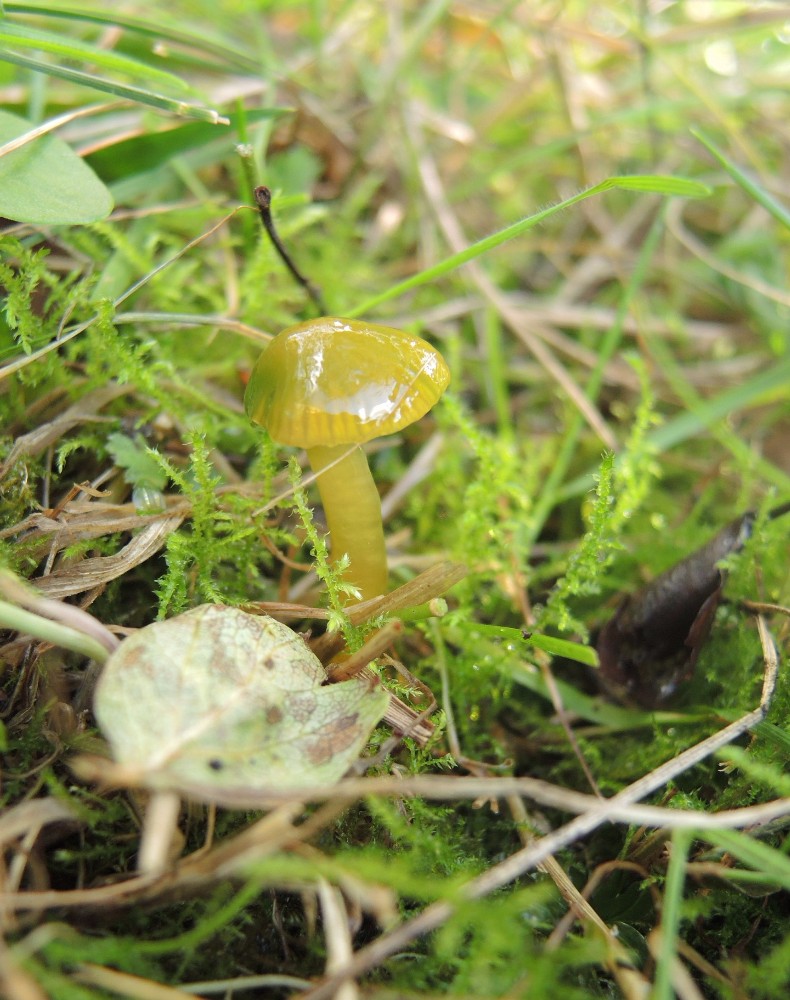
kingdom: Fungi
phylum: Basidiomycota
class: Agaricomycetes
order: Agaricales
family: Hygrophoraceae
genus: Gliophorus
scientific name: Gliophorus psittacinus
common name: papegøje-vokshat
